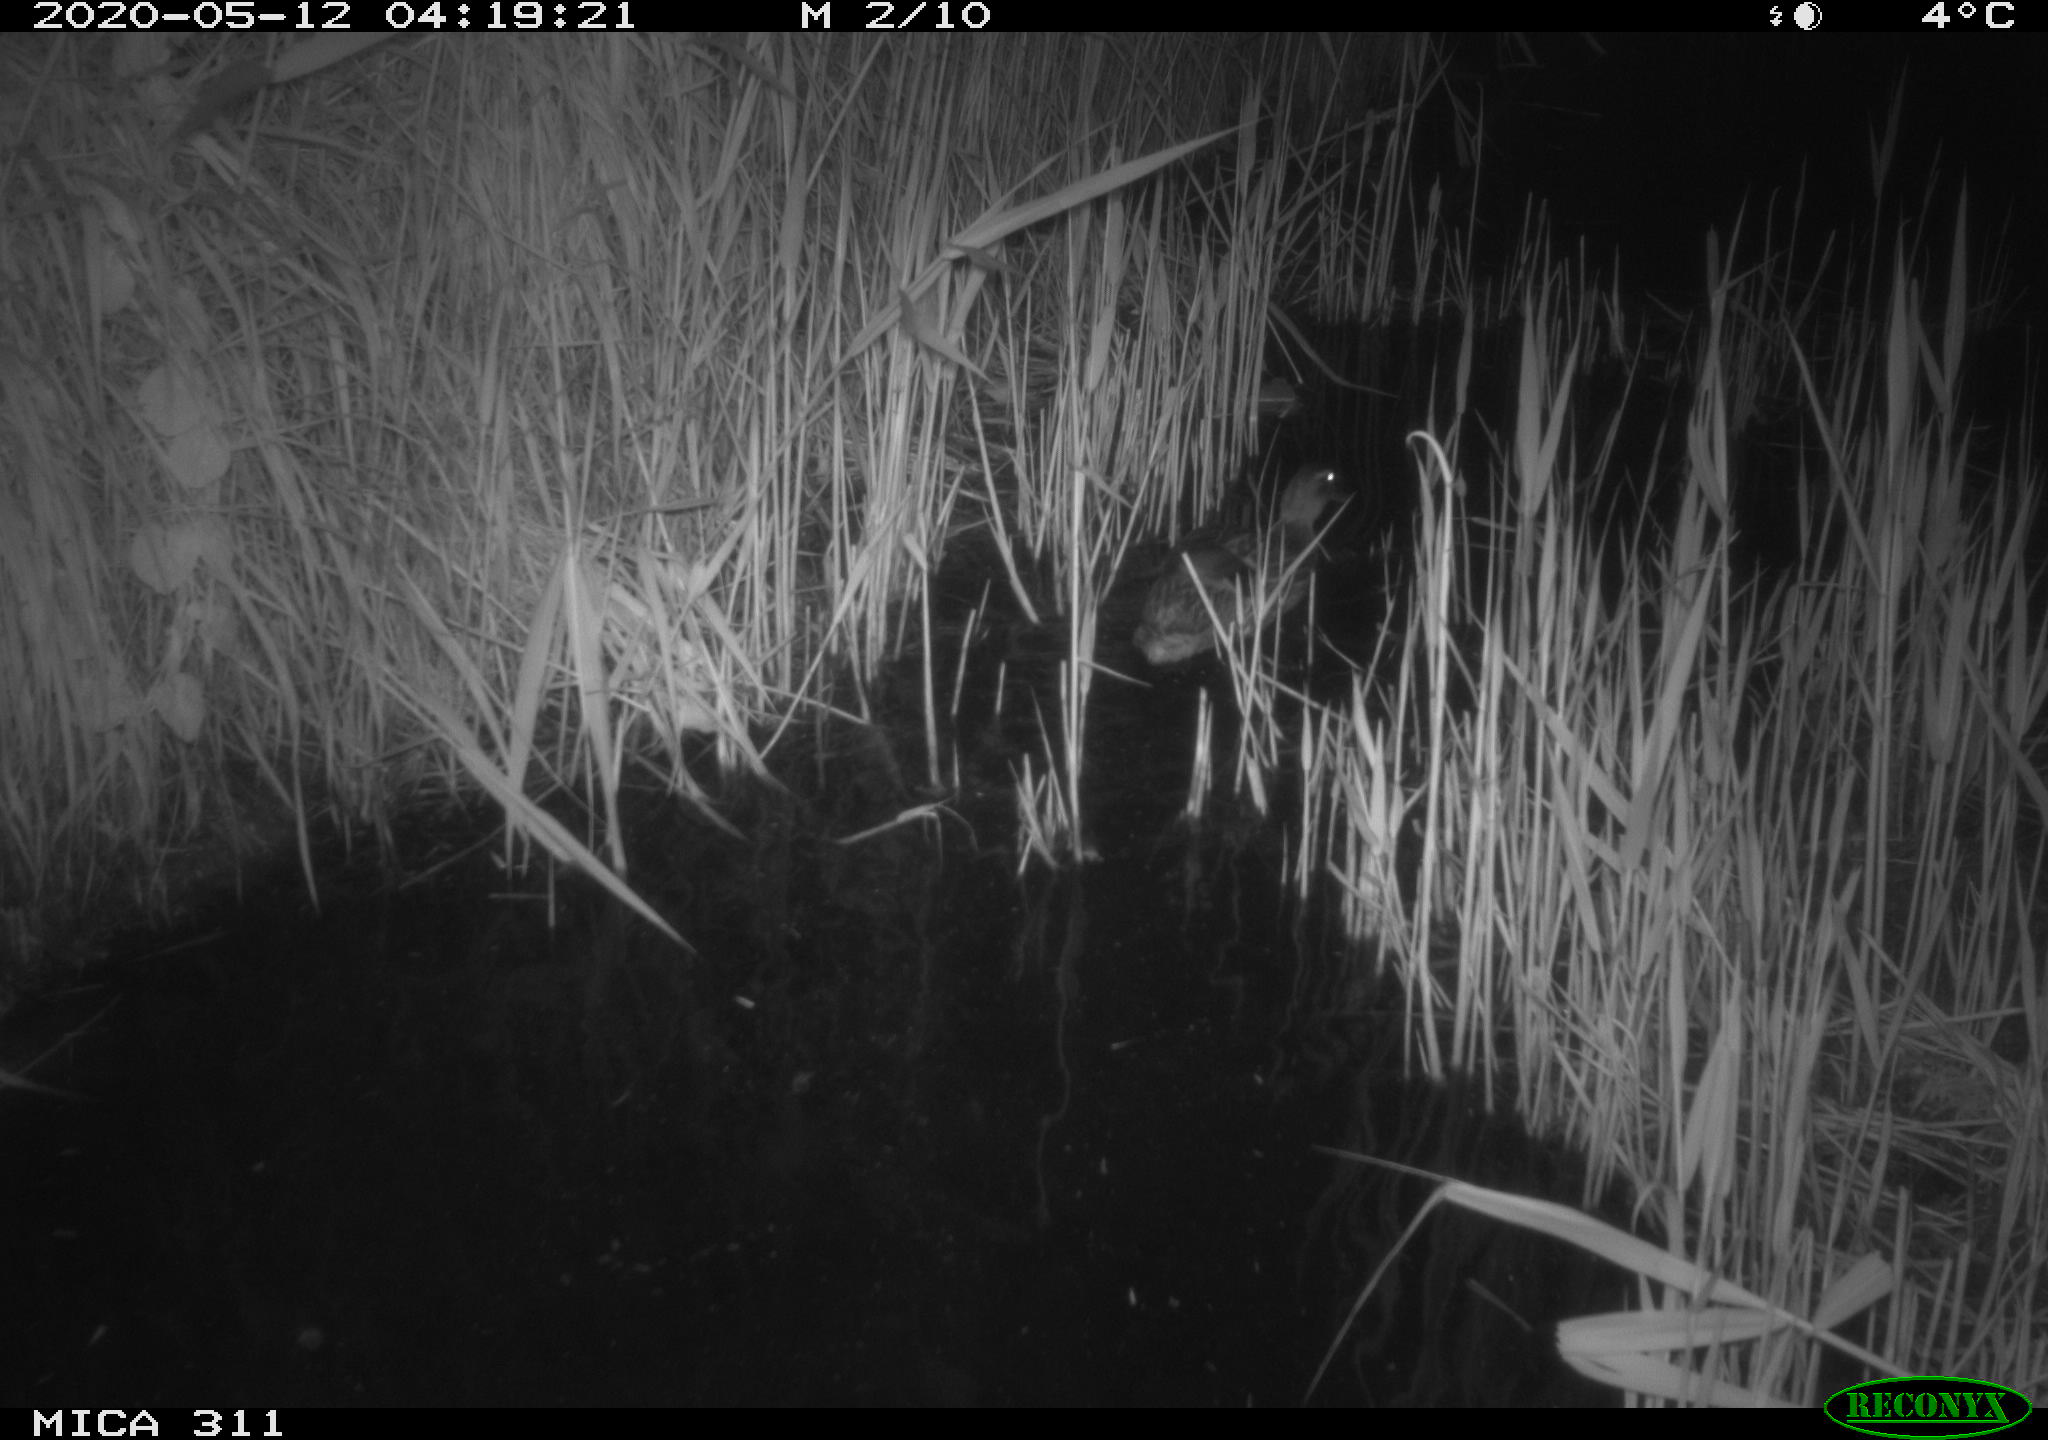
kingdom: Animalia
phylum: Chordata
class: Aves
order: Anseriformes
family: Anatidae
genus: Anas
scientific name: Anas platyrhynchos
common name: Mallard
